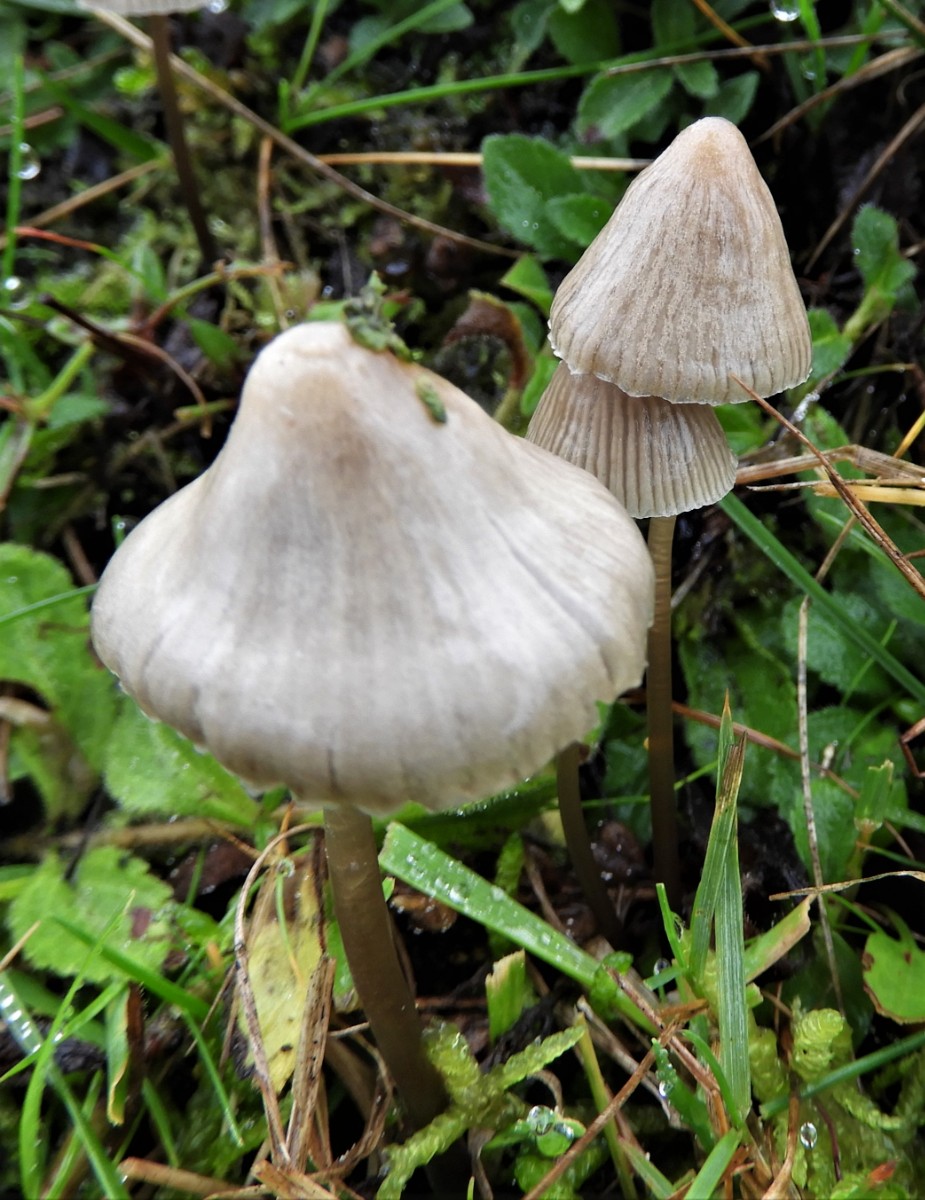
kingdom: Fungi
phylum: Basidiomycota
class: Agaricomycetes
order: Agaricales
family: Mycenaceae
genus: Mycena
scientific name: Mycena aetites
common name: plæne-huesvamp
